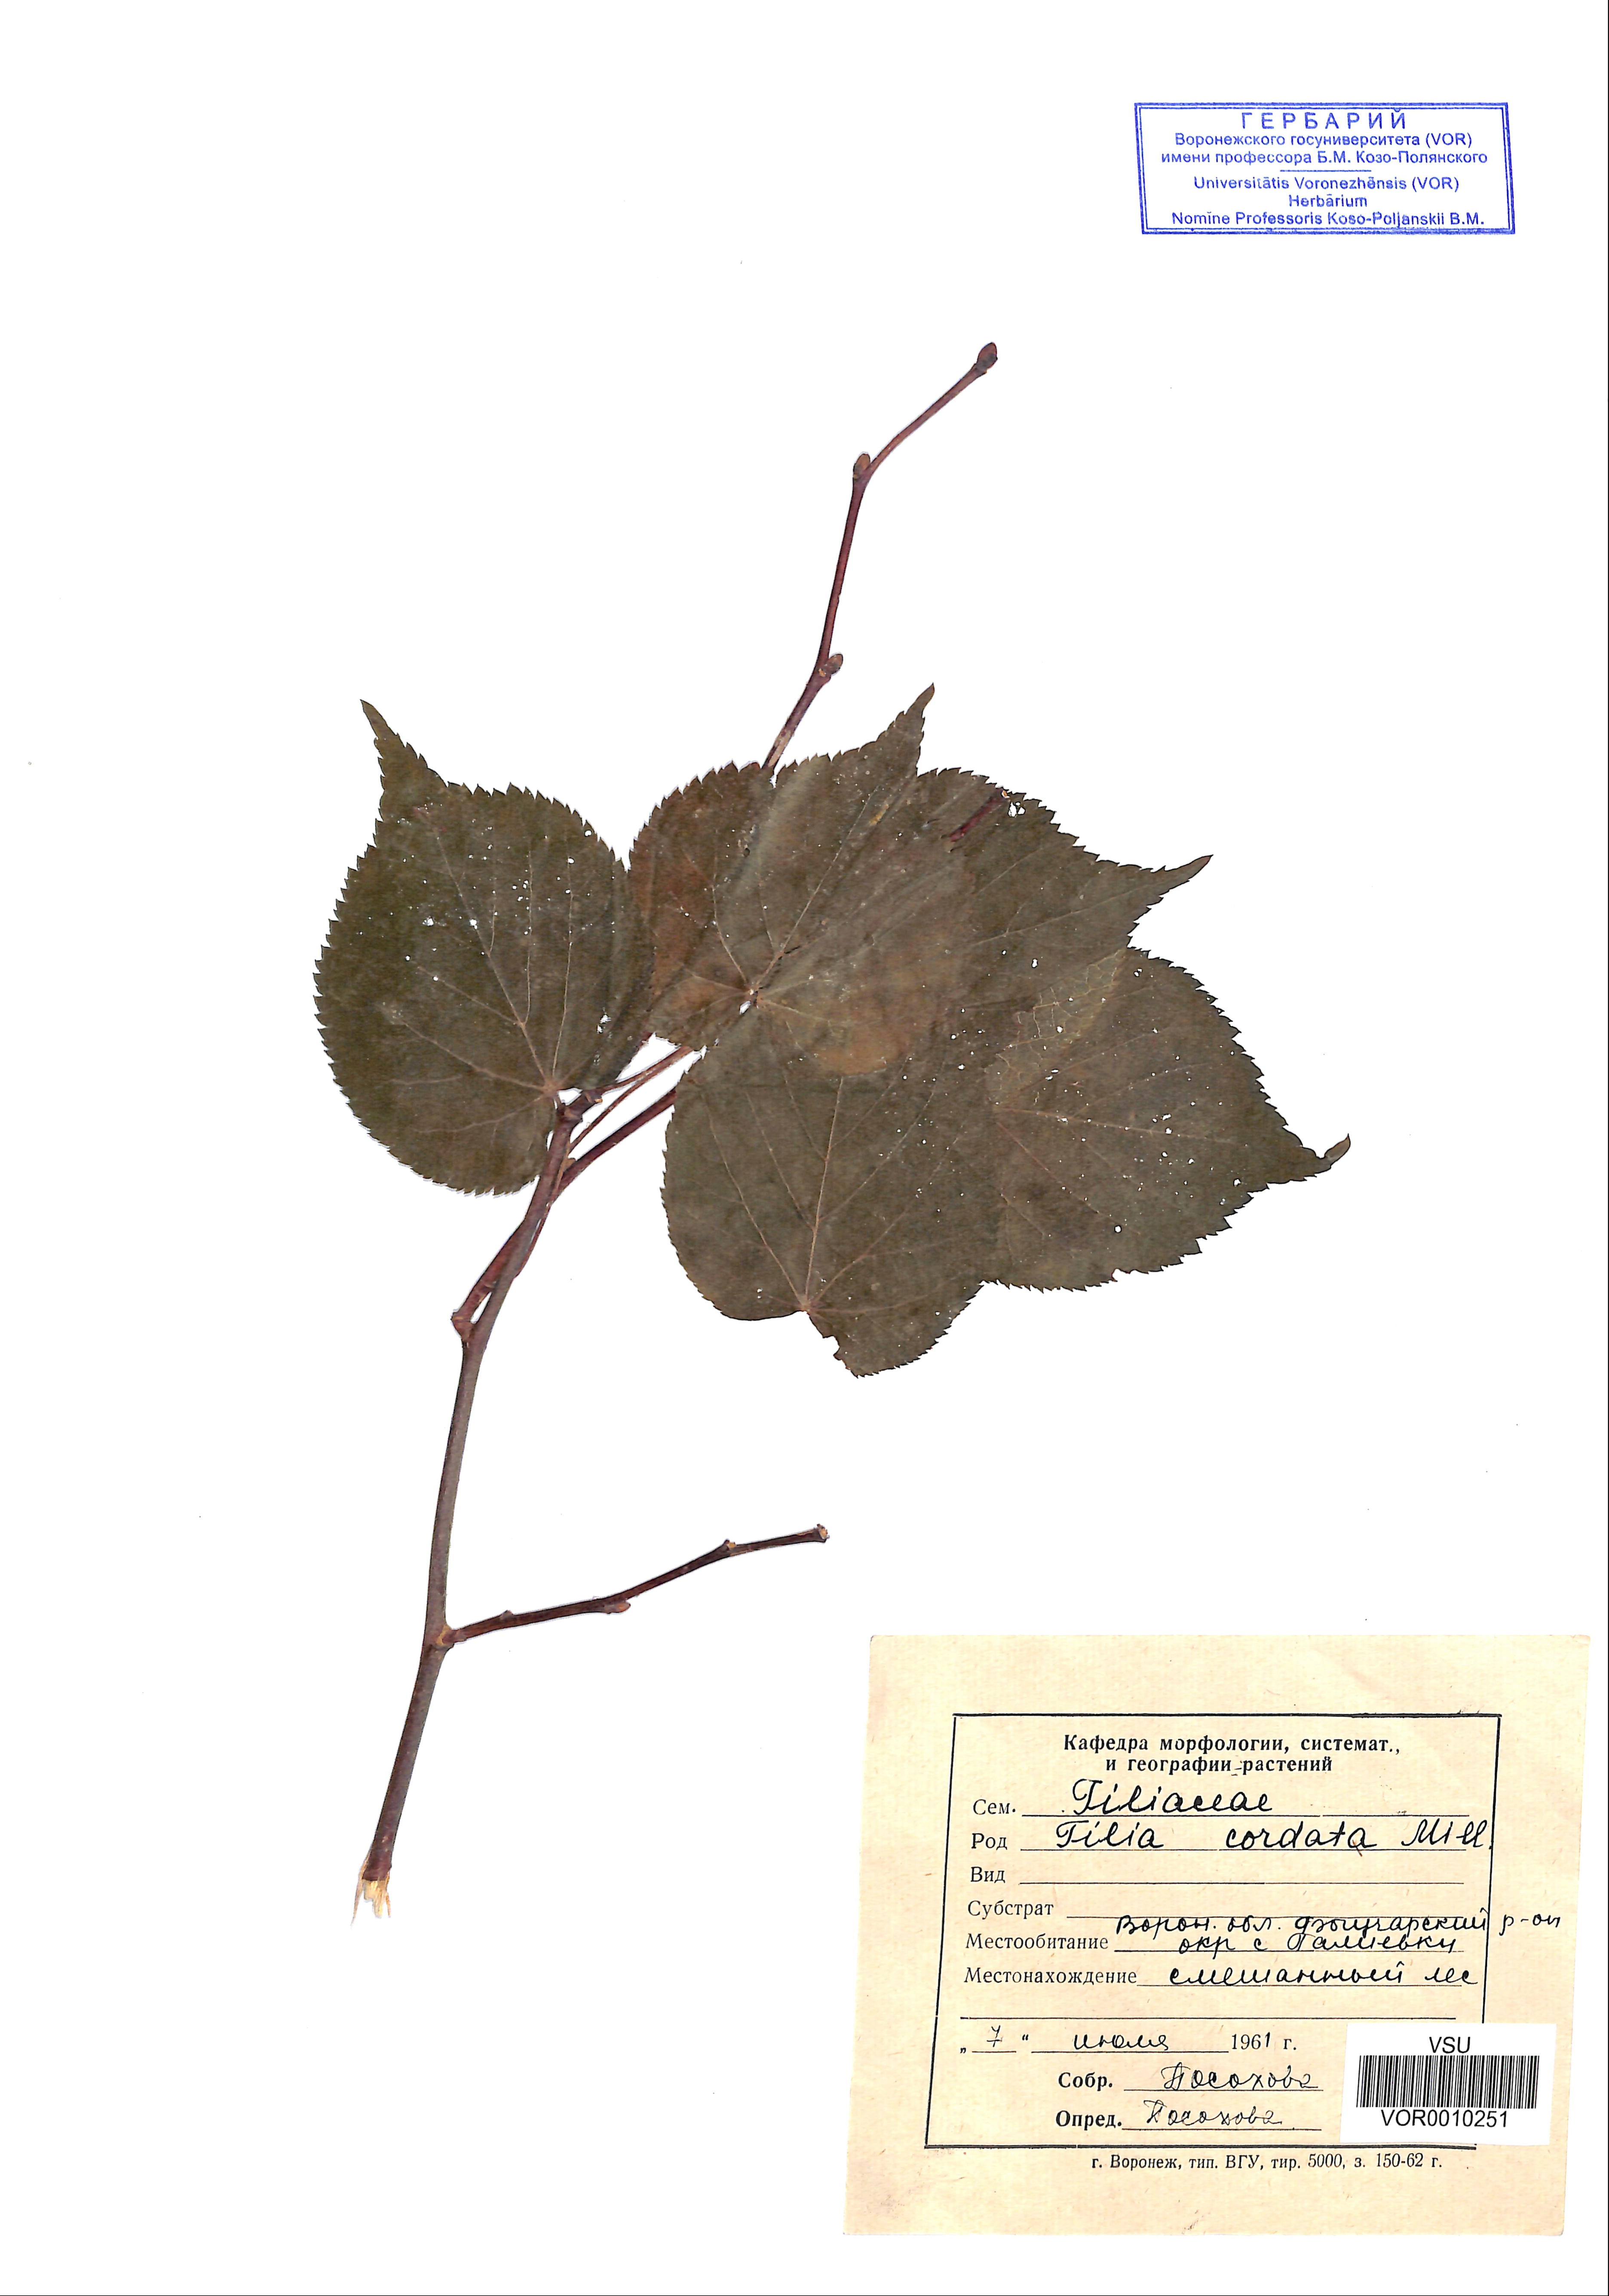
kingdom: Plantae
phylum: Tracheophyta
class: Magnoliopsida
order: Malvales
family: Malvaceae
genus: Tilia
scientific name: Tilia cordata
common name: Small-leaved lime
